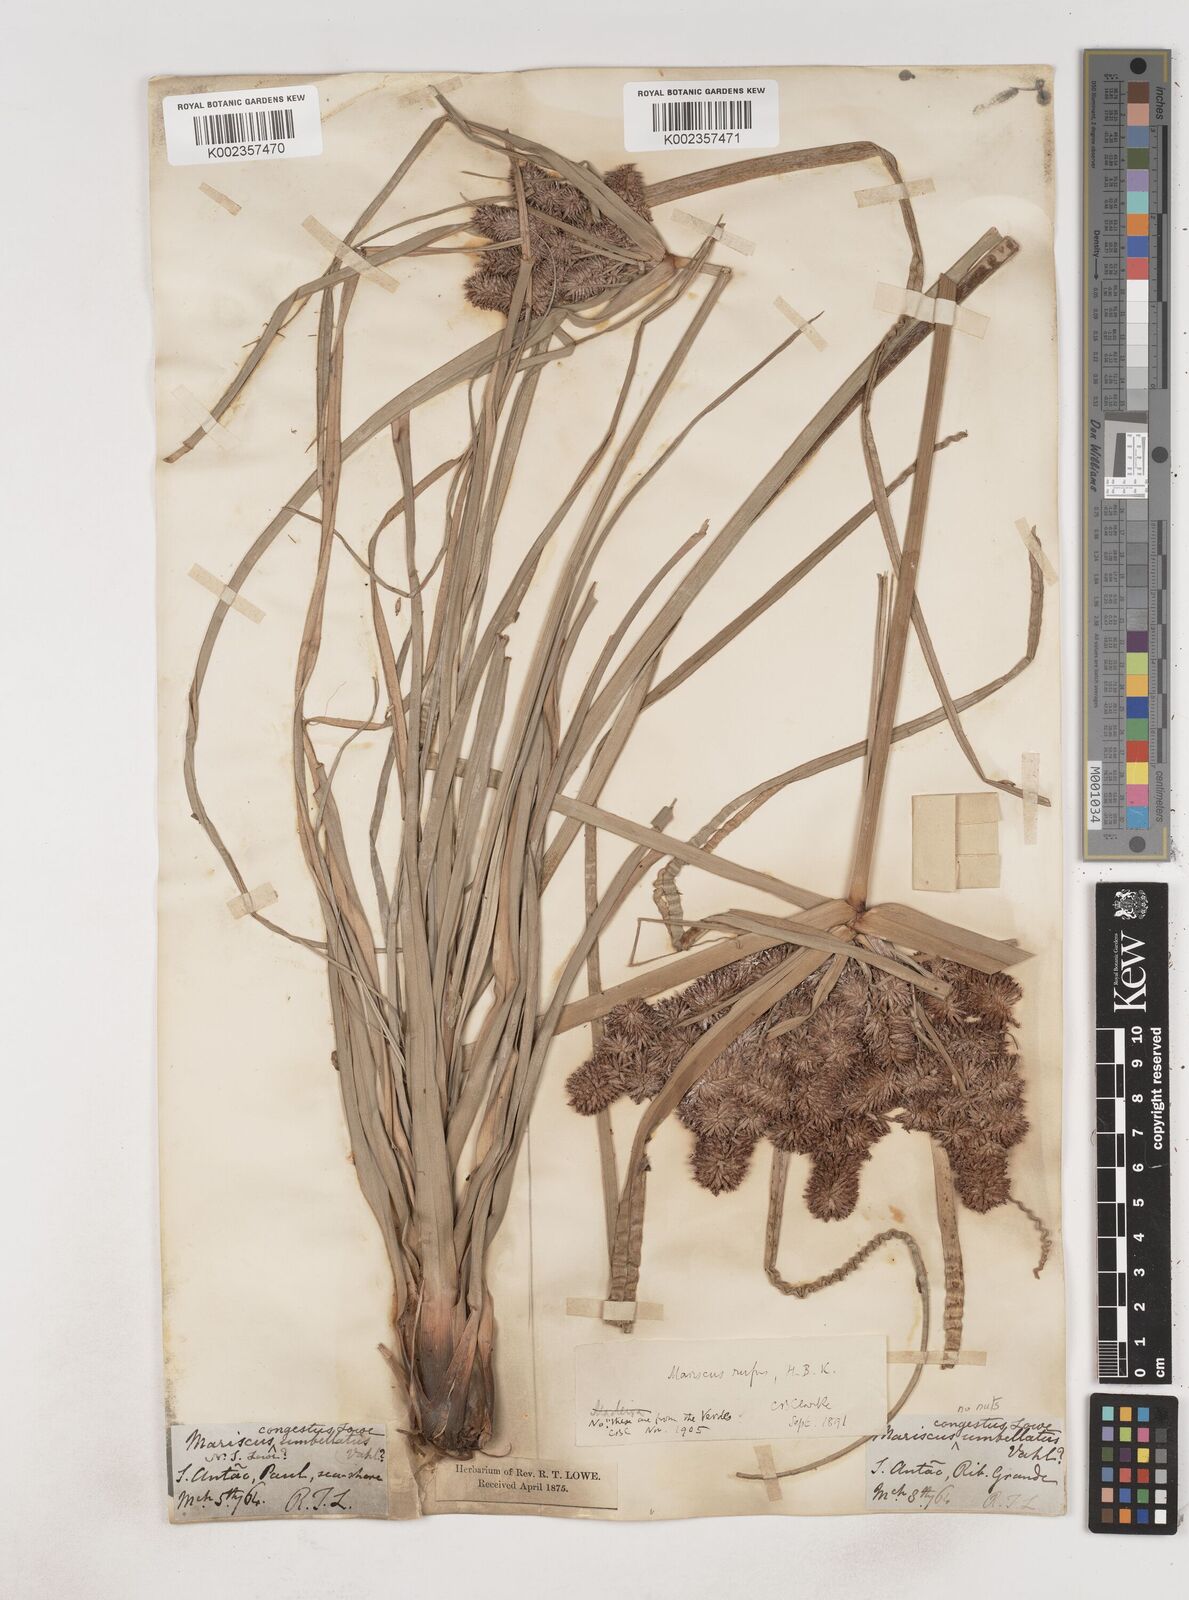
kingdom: Plantae
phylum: Tracheophyta
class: Liliopsida
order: Poales
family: Cyperaceae
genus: Cyperus
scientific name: Cyperus ligularis
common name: Swamp flat sedge
